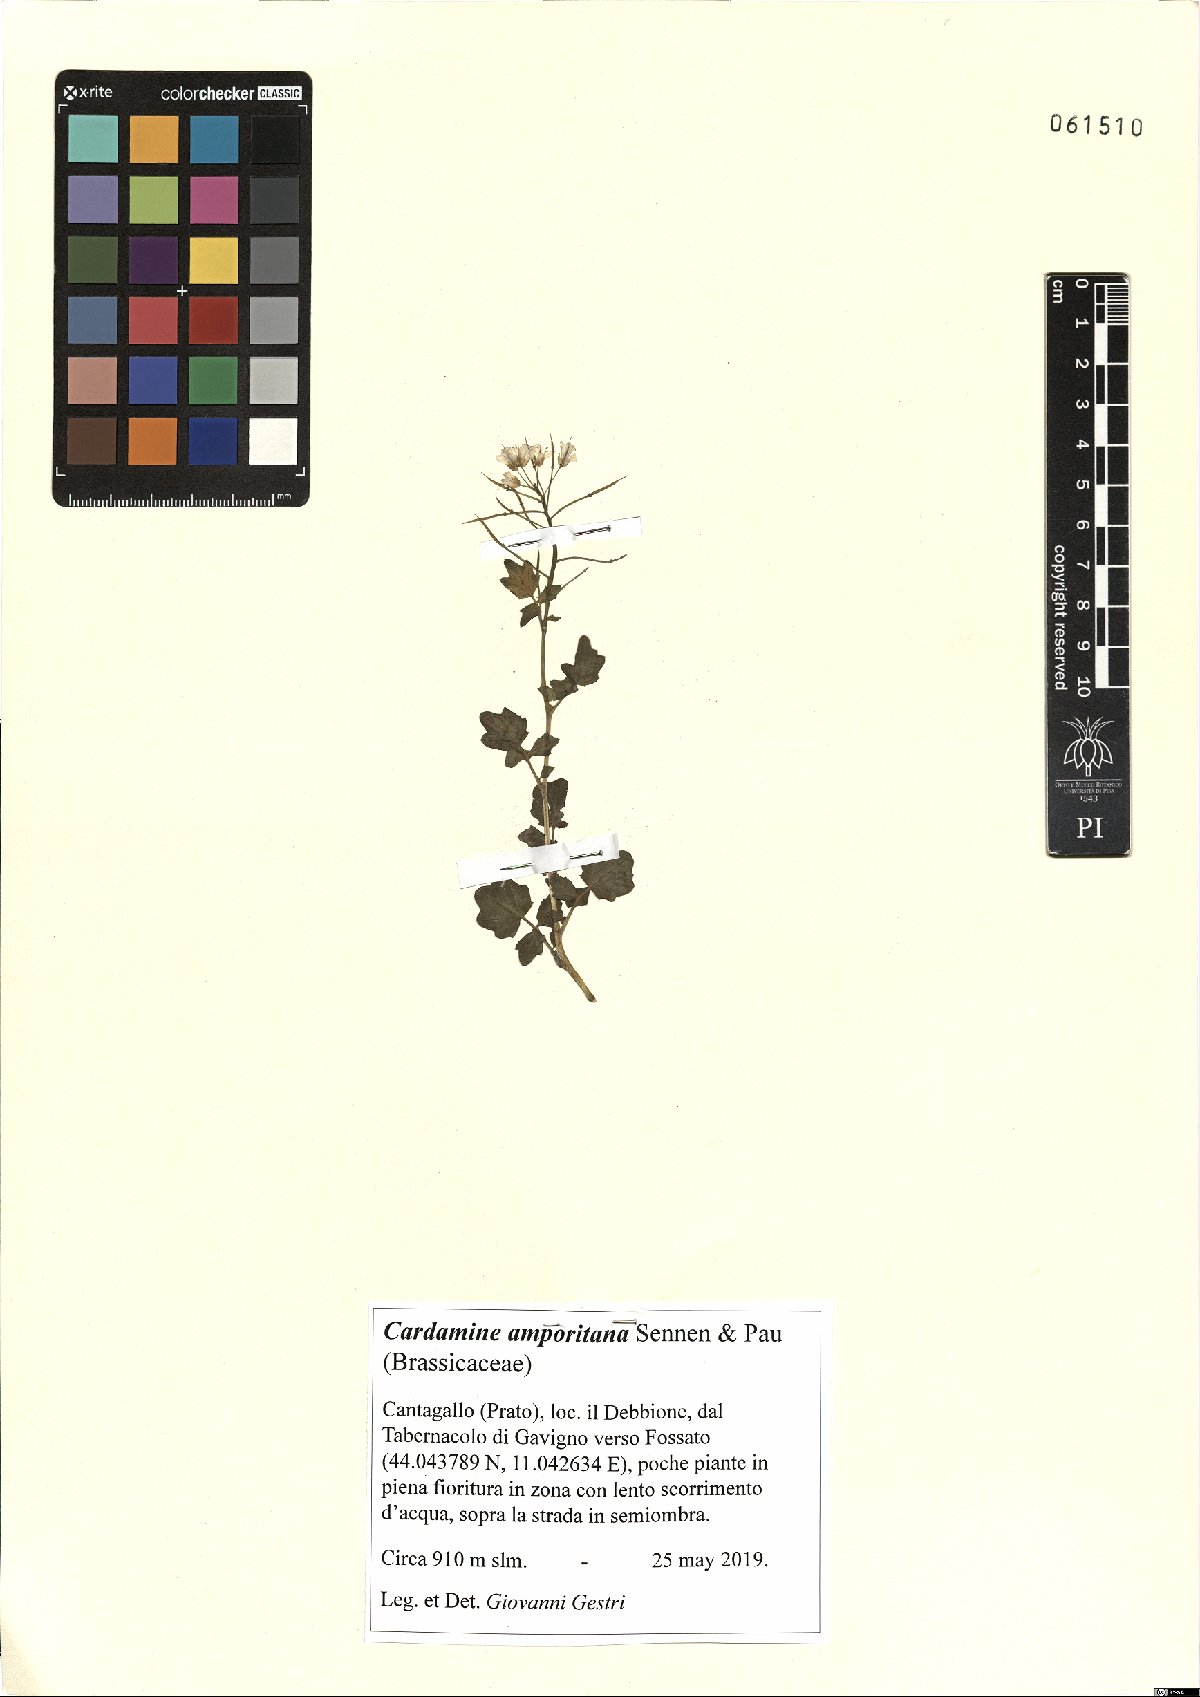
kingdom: Plantae
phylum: Tracheophyta
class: Magnoliopsida
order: Brassicales
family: Brassicaceae
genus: Cardamine
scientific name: Cardamine amara
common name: Large bitter-cress
